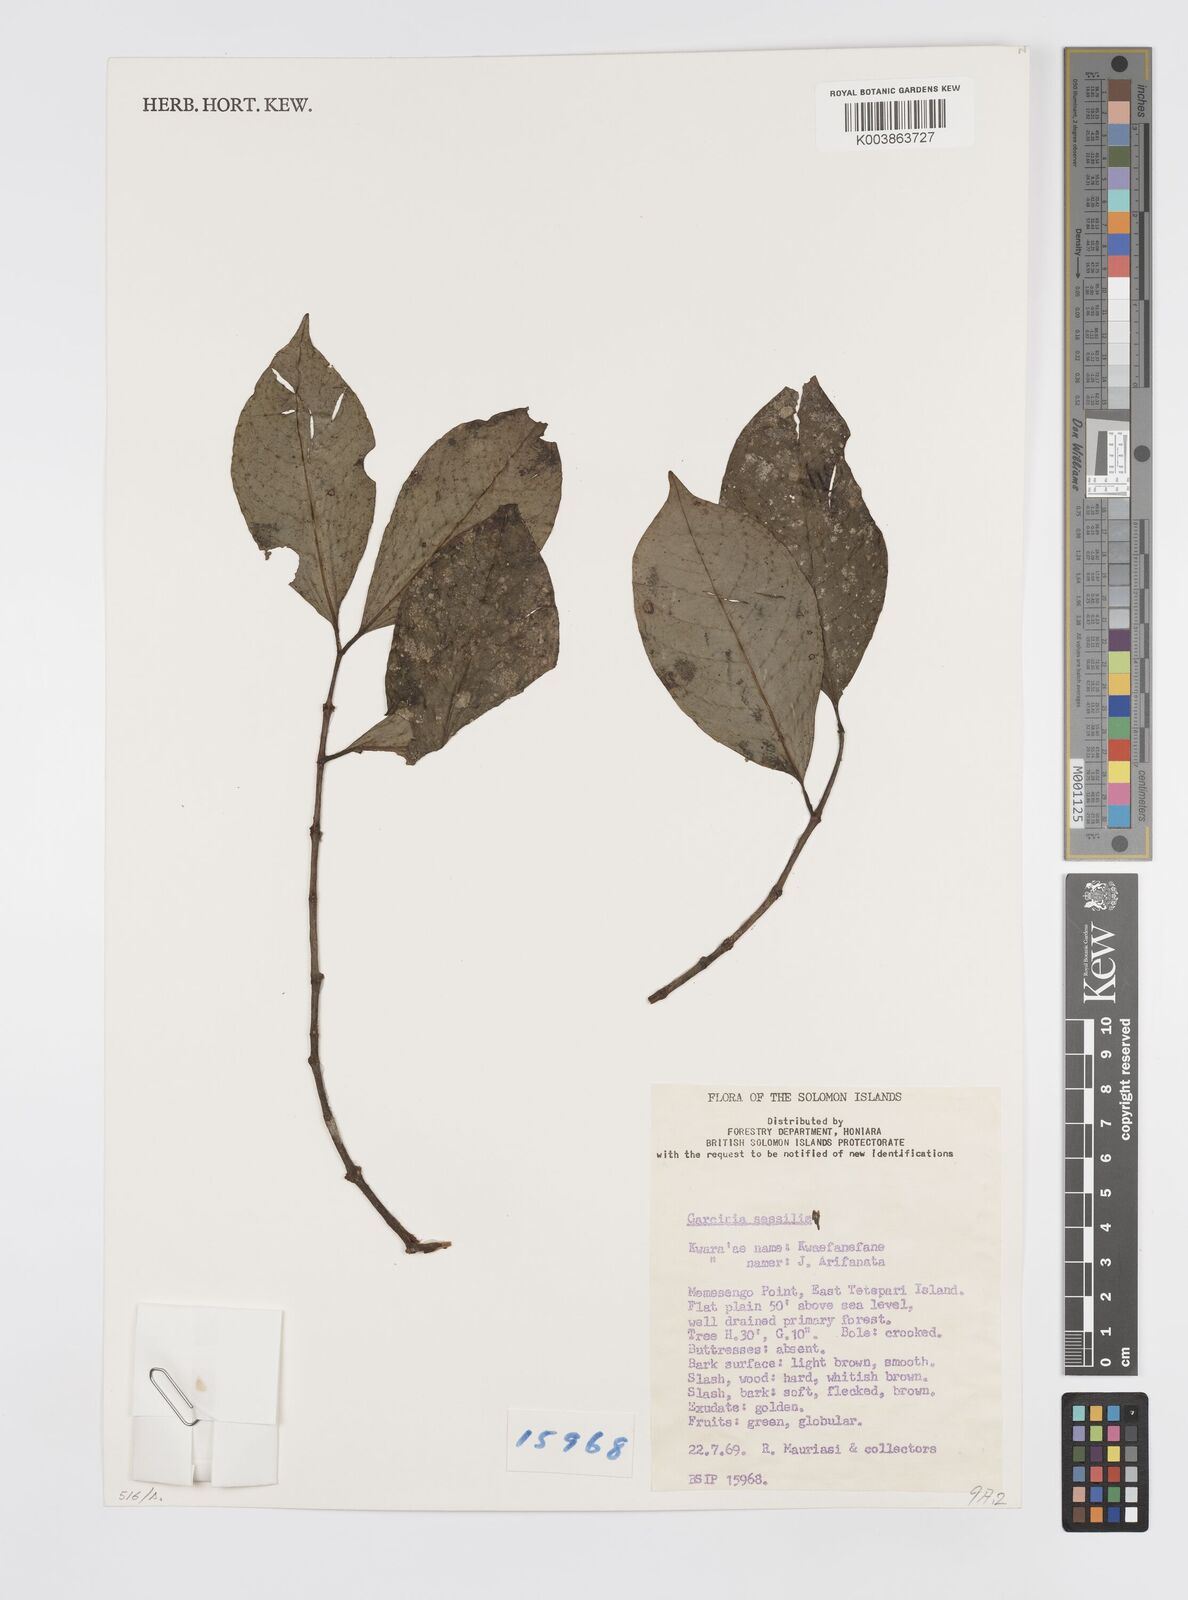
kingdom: Plantae
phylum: Tracheophyta
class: Magnoliopsida
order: Malpighiales
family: Clusiaceae
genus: Garcinia
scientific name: Garcinia sessilis
